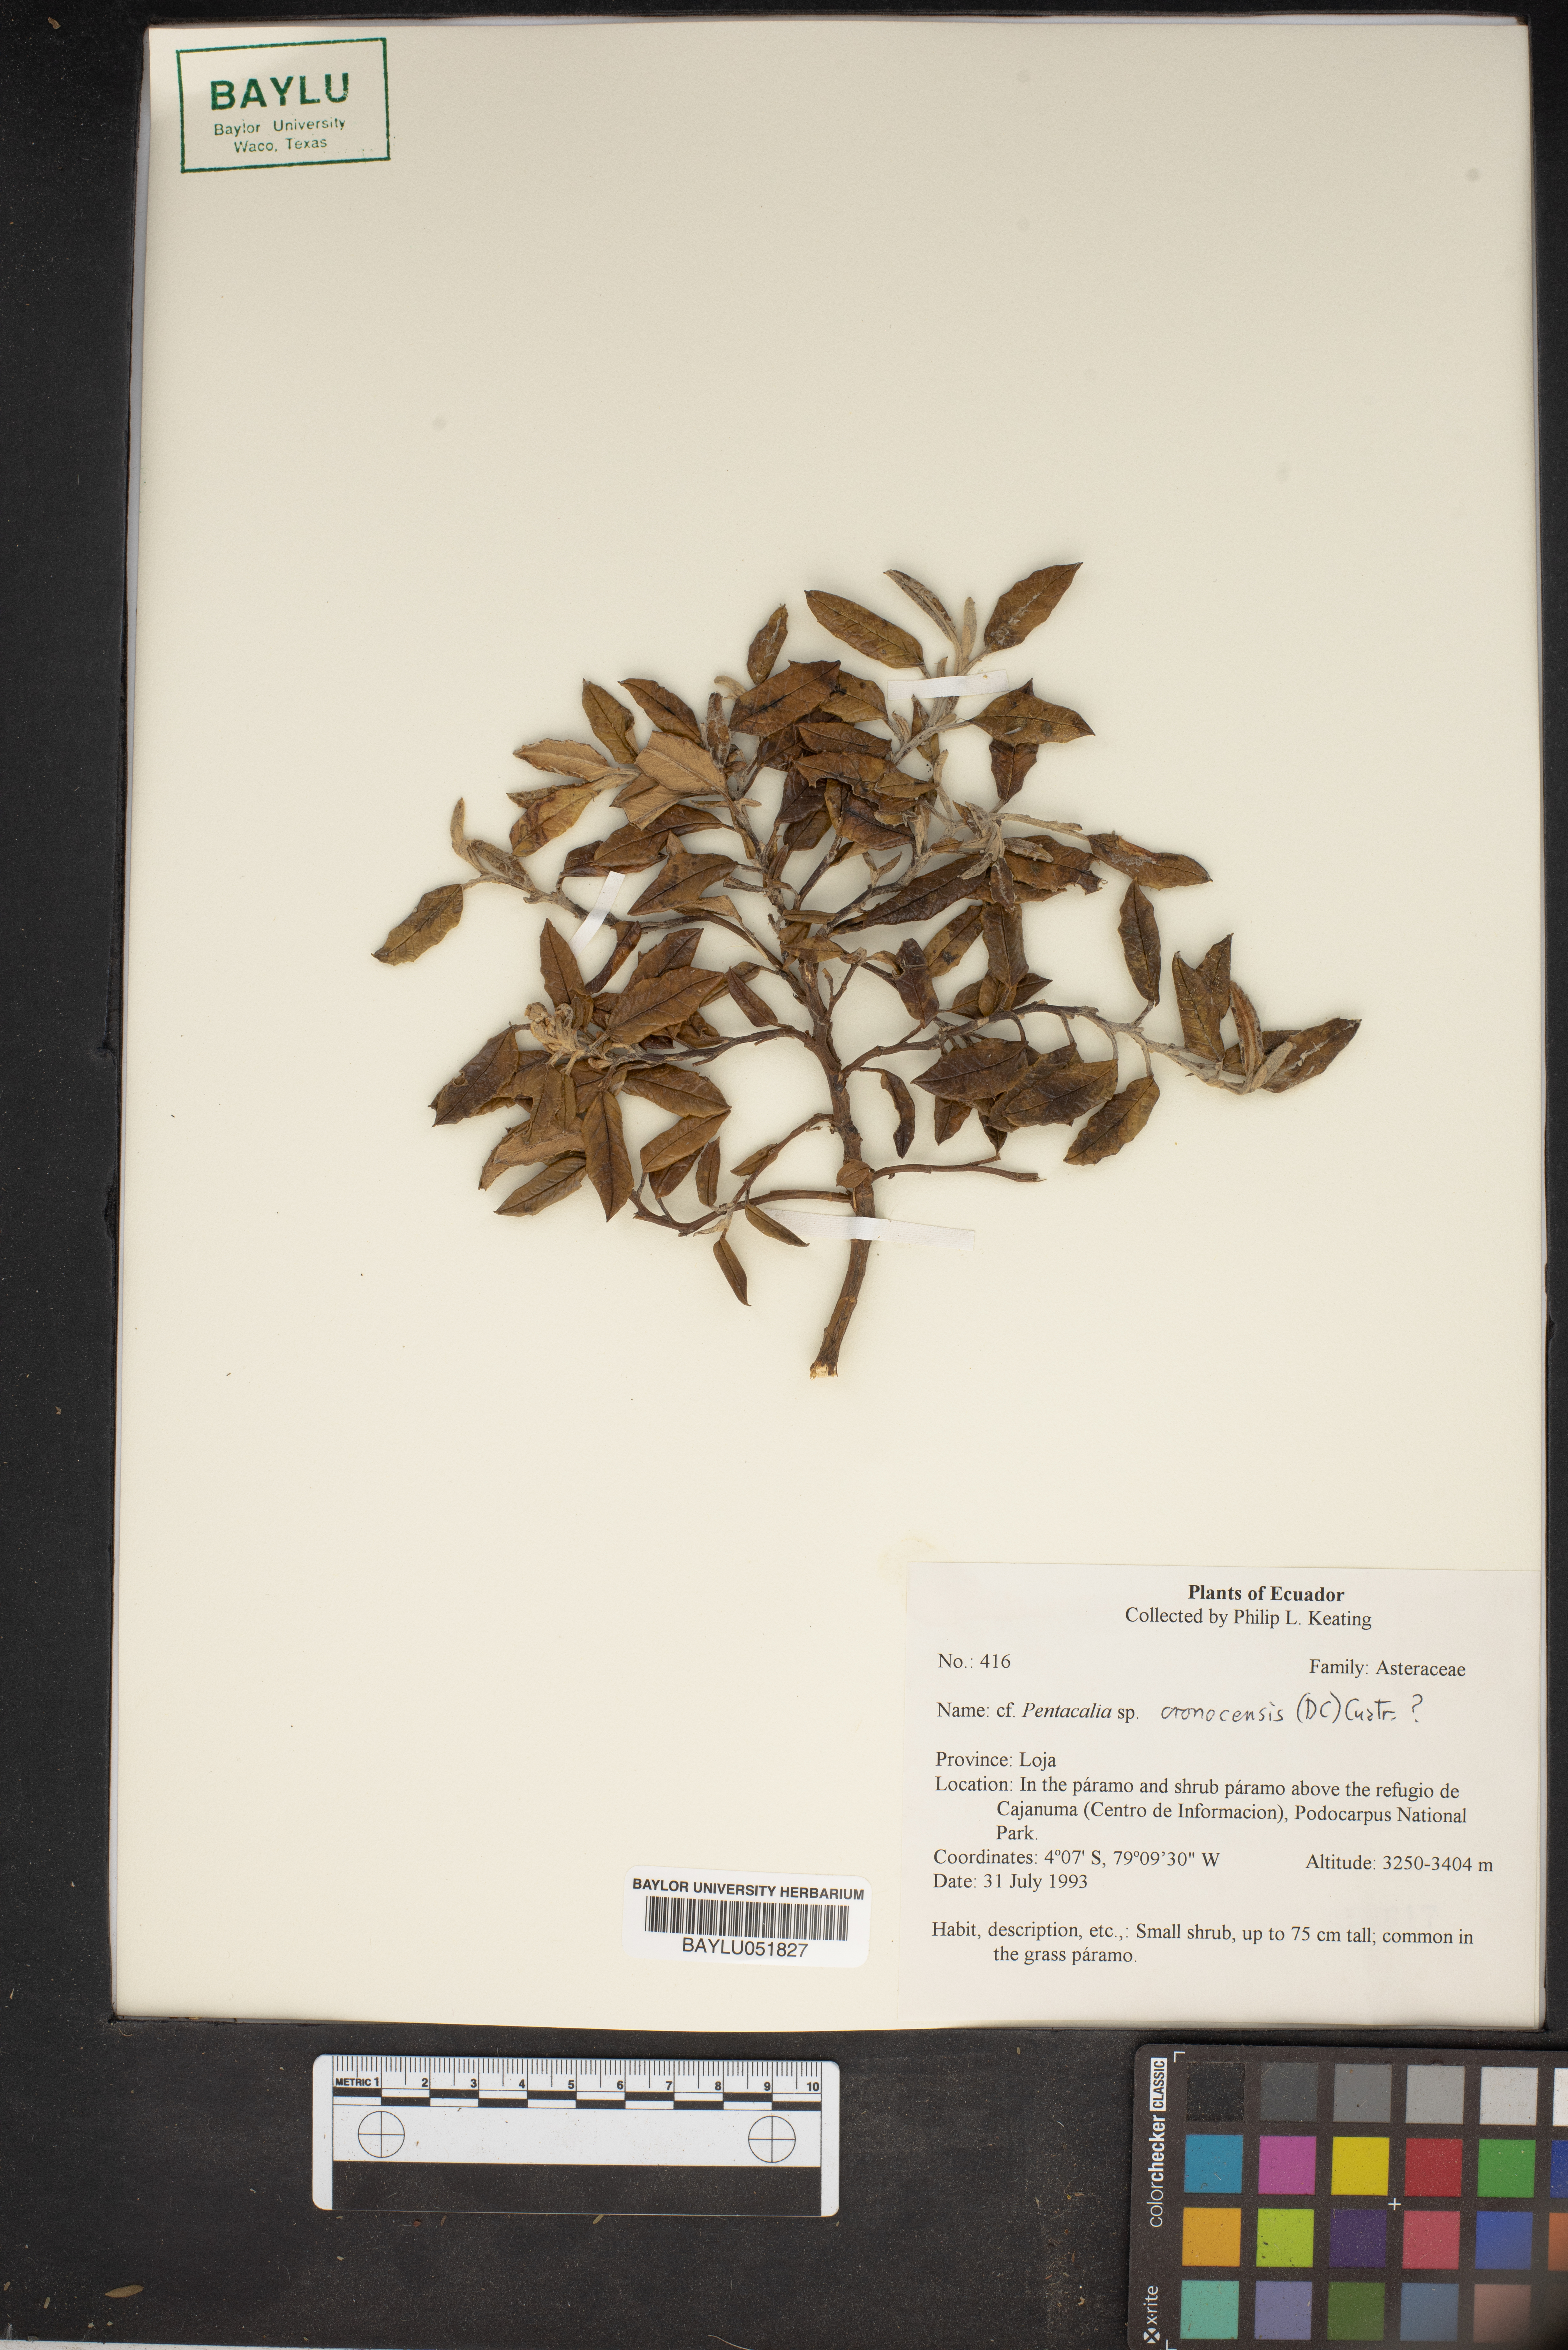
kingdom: Plantae
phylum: Tracheophyta
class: Magnoliopsida
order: Asterales
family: Asteraceae
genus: Pentacalia
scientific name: Pentacalia oronocensis
